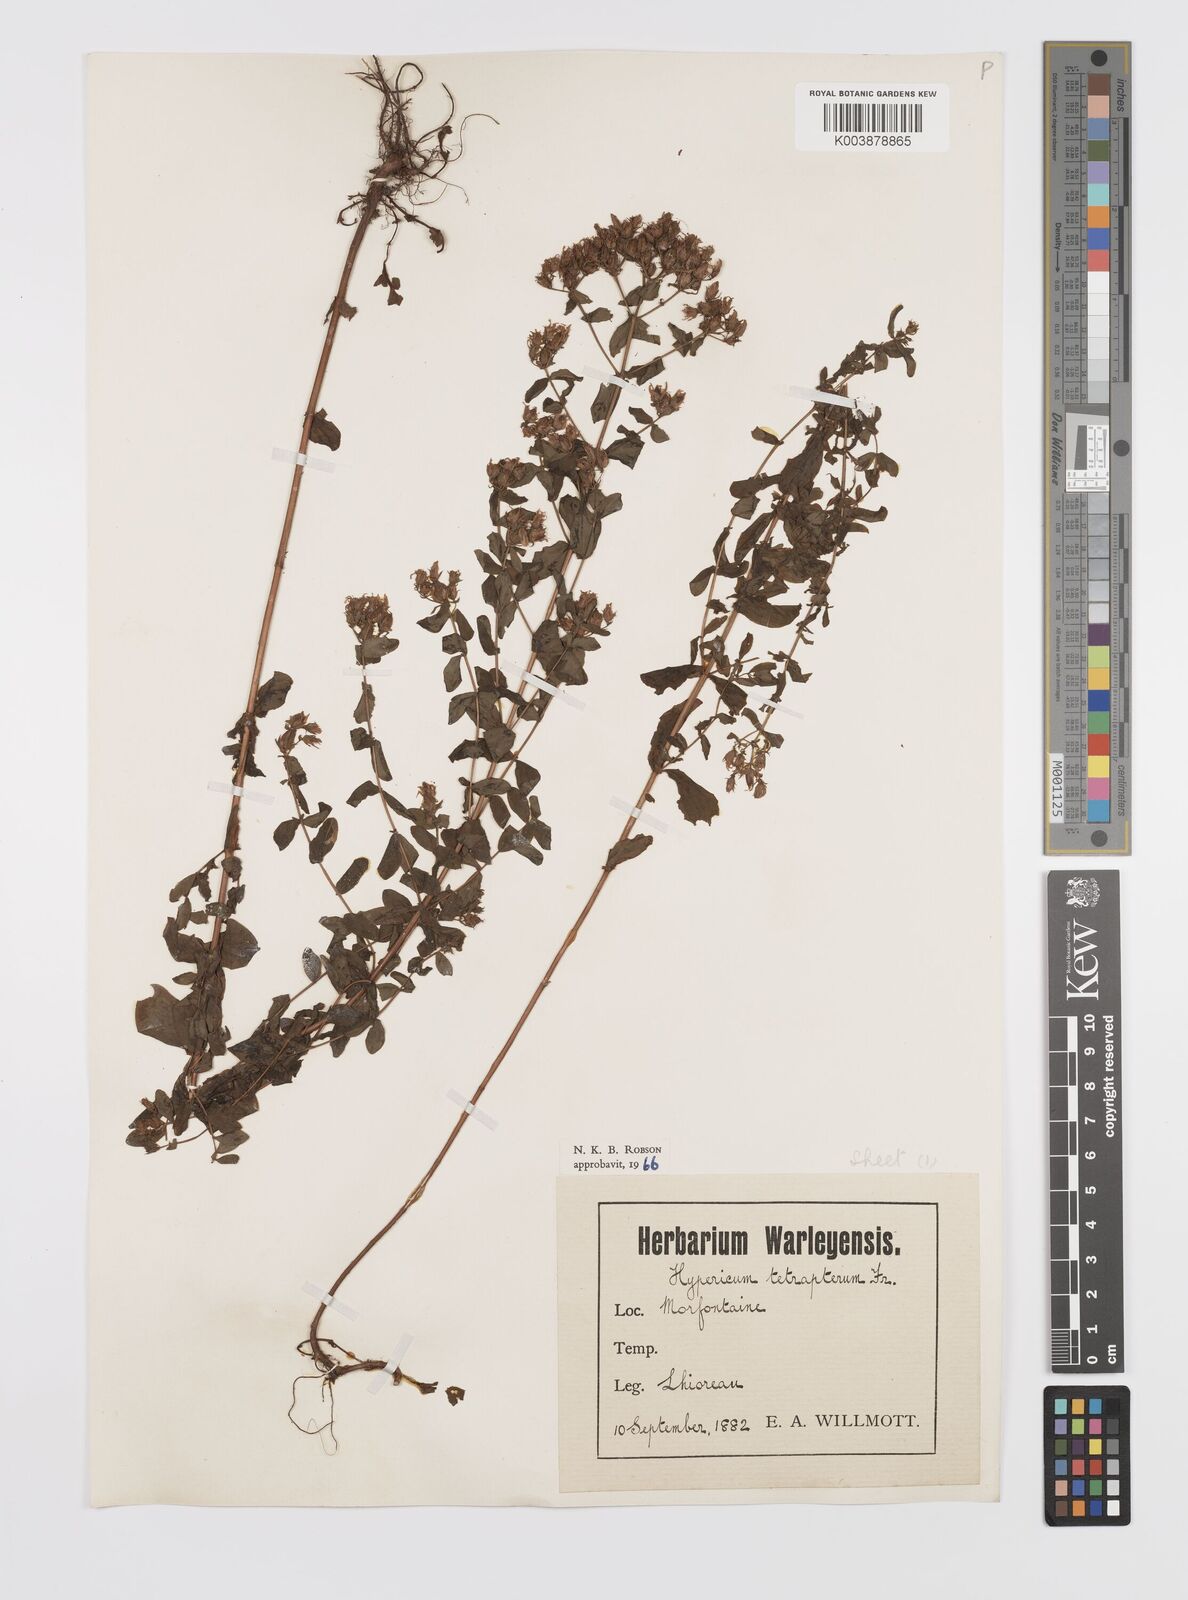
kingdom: Plantae
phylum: Tracheophyta
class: Magnoliopsida
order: Malpighiales
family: Hypericaceae
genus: Hypericum
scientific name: Hypericum tetrapterum
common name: Square-stalked st. john's-wort
